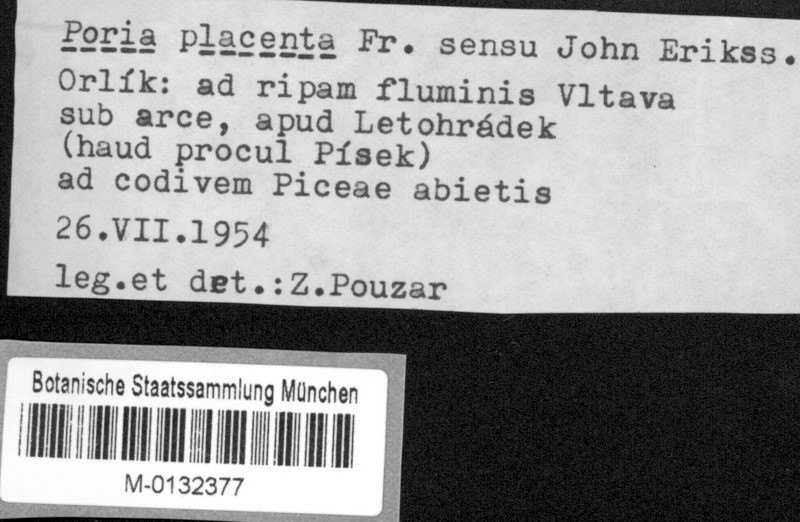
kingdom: Fungi
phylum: Basidiomycota
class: Agaricomycetes
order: Polyporales
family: Polyporaceae
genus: Rhodonia
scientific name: Rhodonia placenta
